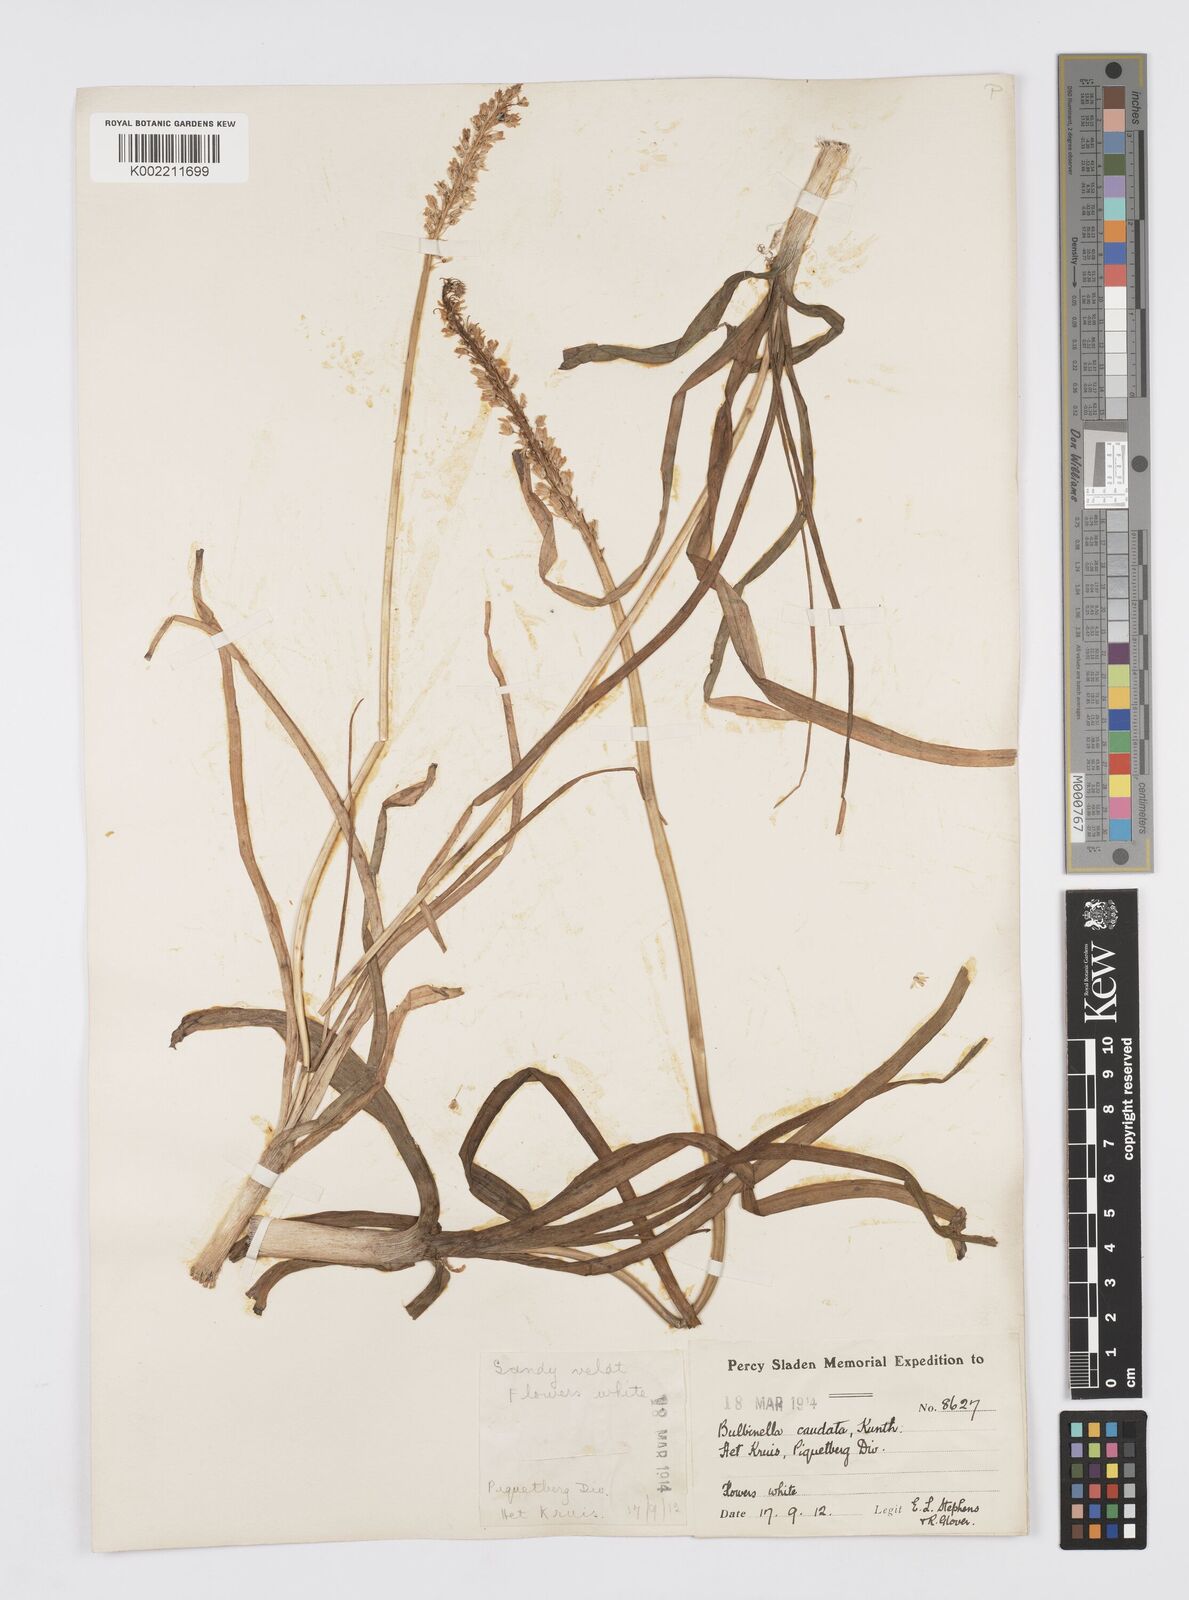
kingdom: Plantae
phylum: Tracheophyta
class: Liliopsida
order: Asparagales
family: Asphodelaceae
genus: Bulbinella
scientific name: Bulbinella cauda-felis
